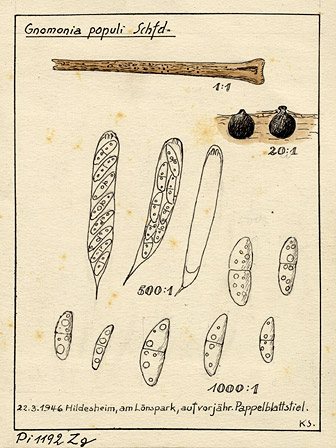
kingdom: Fungi
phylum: Ascomycota
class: Sordariomycetes
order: Diaporthales
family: Gnomoniaceae
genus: Gnomonia
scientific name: Gnomonia
